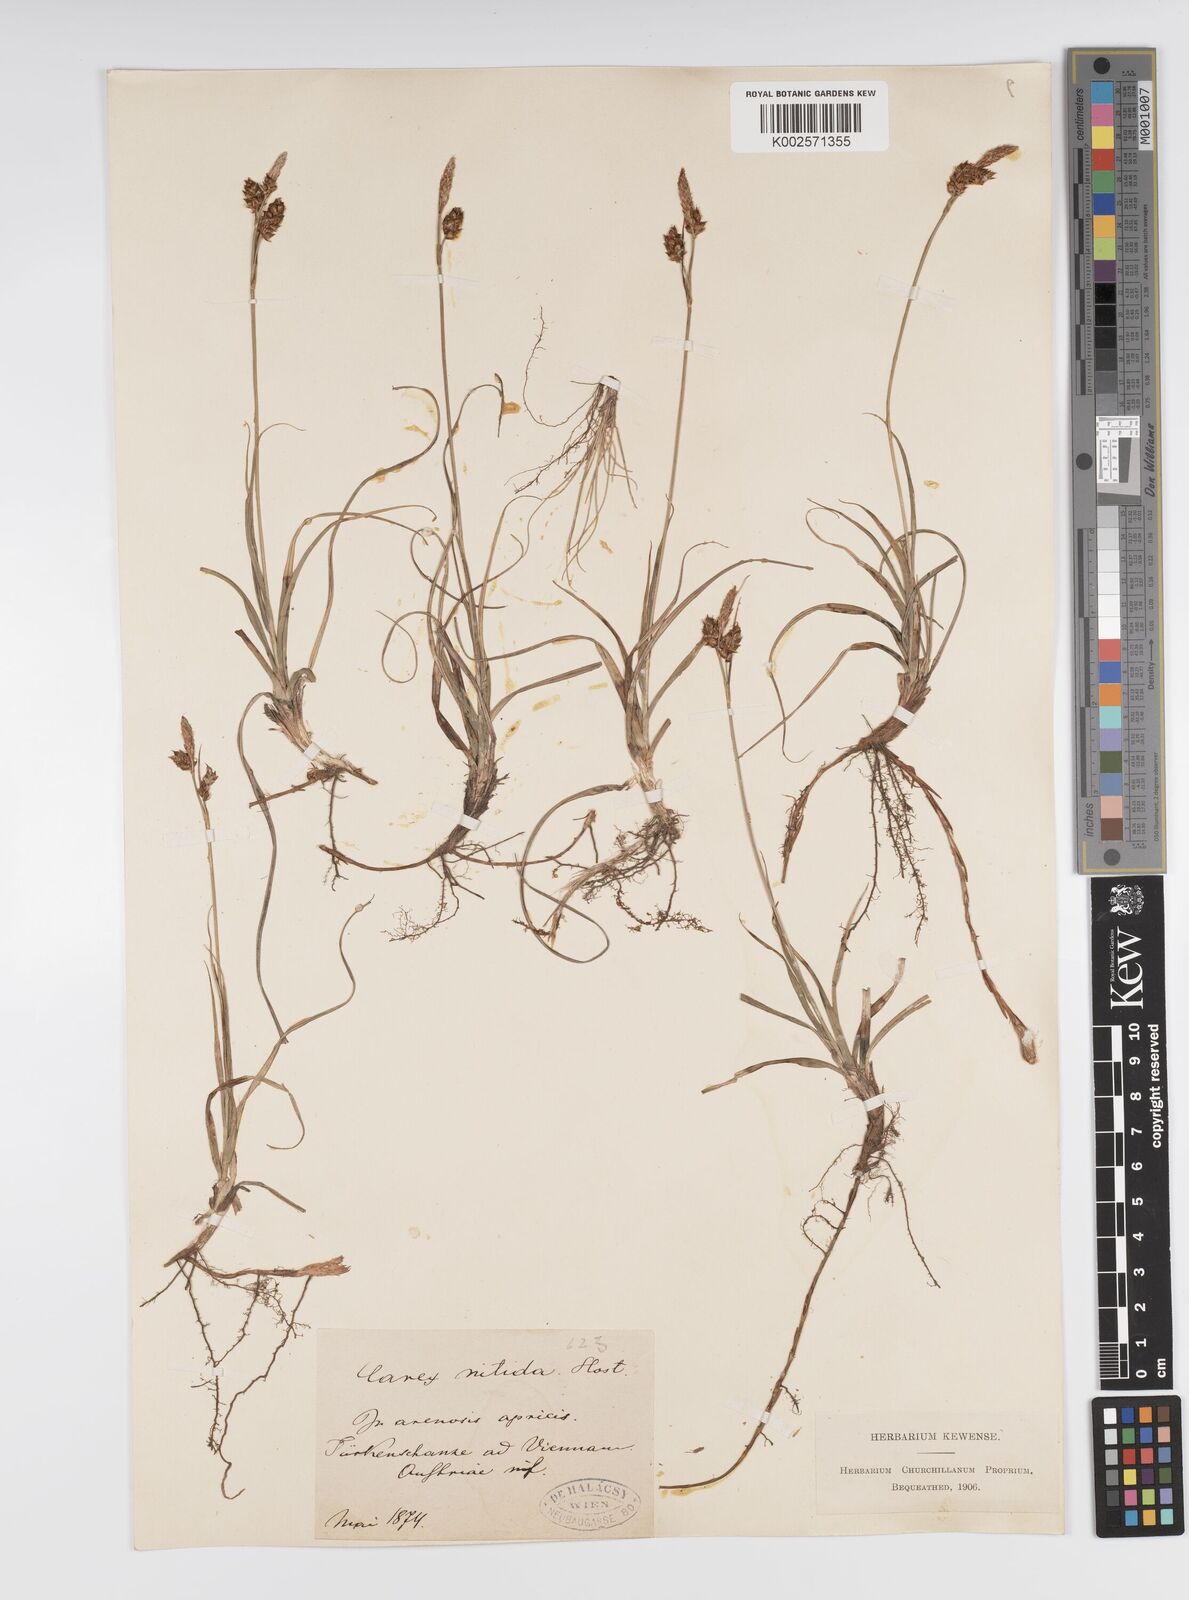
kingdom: Plantae
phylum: Tracheophyta
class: Liliopsida
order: Poales
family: Cyperaceae
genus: Carex
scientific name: Carex liparocarpos
